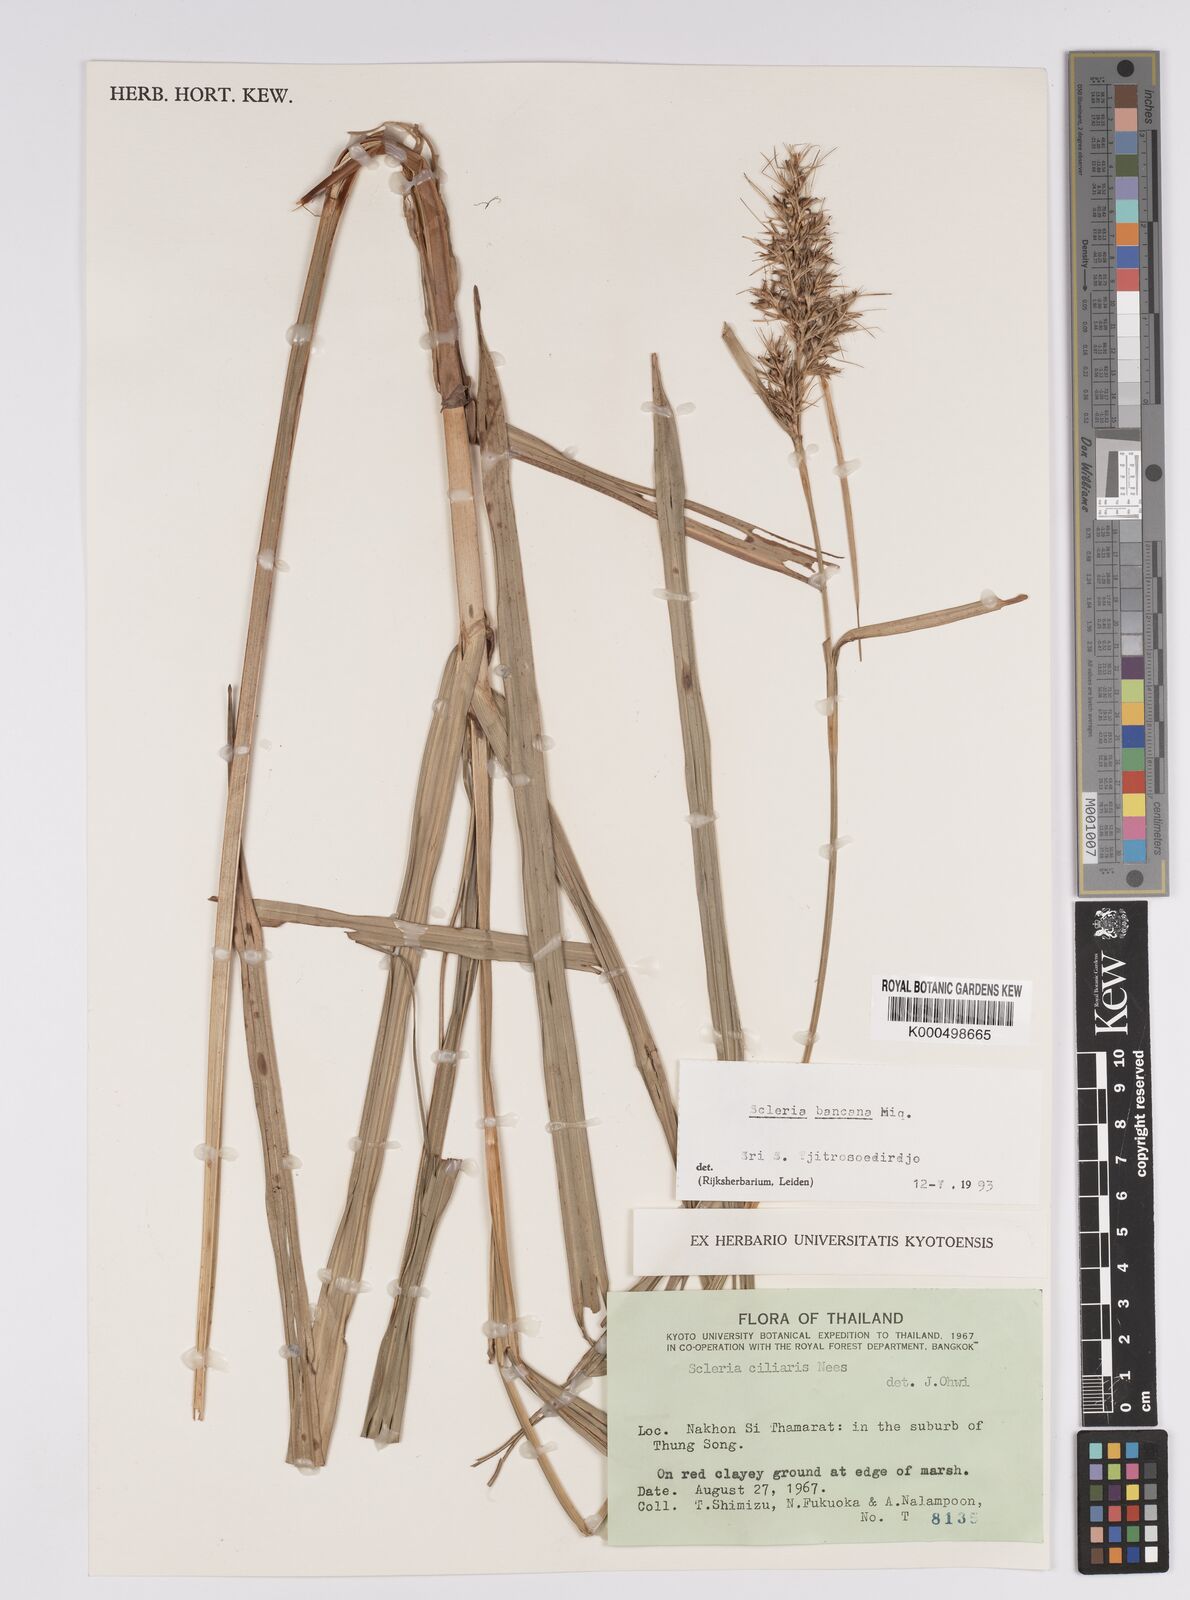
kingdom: Plantae
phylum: Tracheophyta
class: Liliopsida
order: Poales
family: Cyperaceae
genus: Scleria
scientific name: Scleria ciliaris
